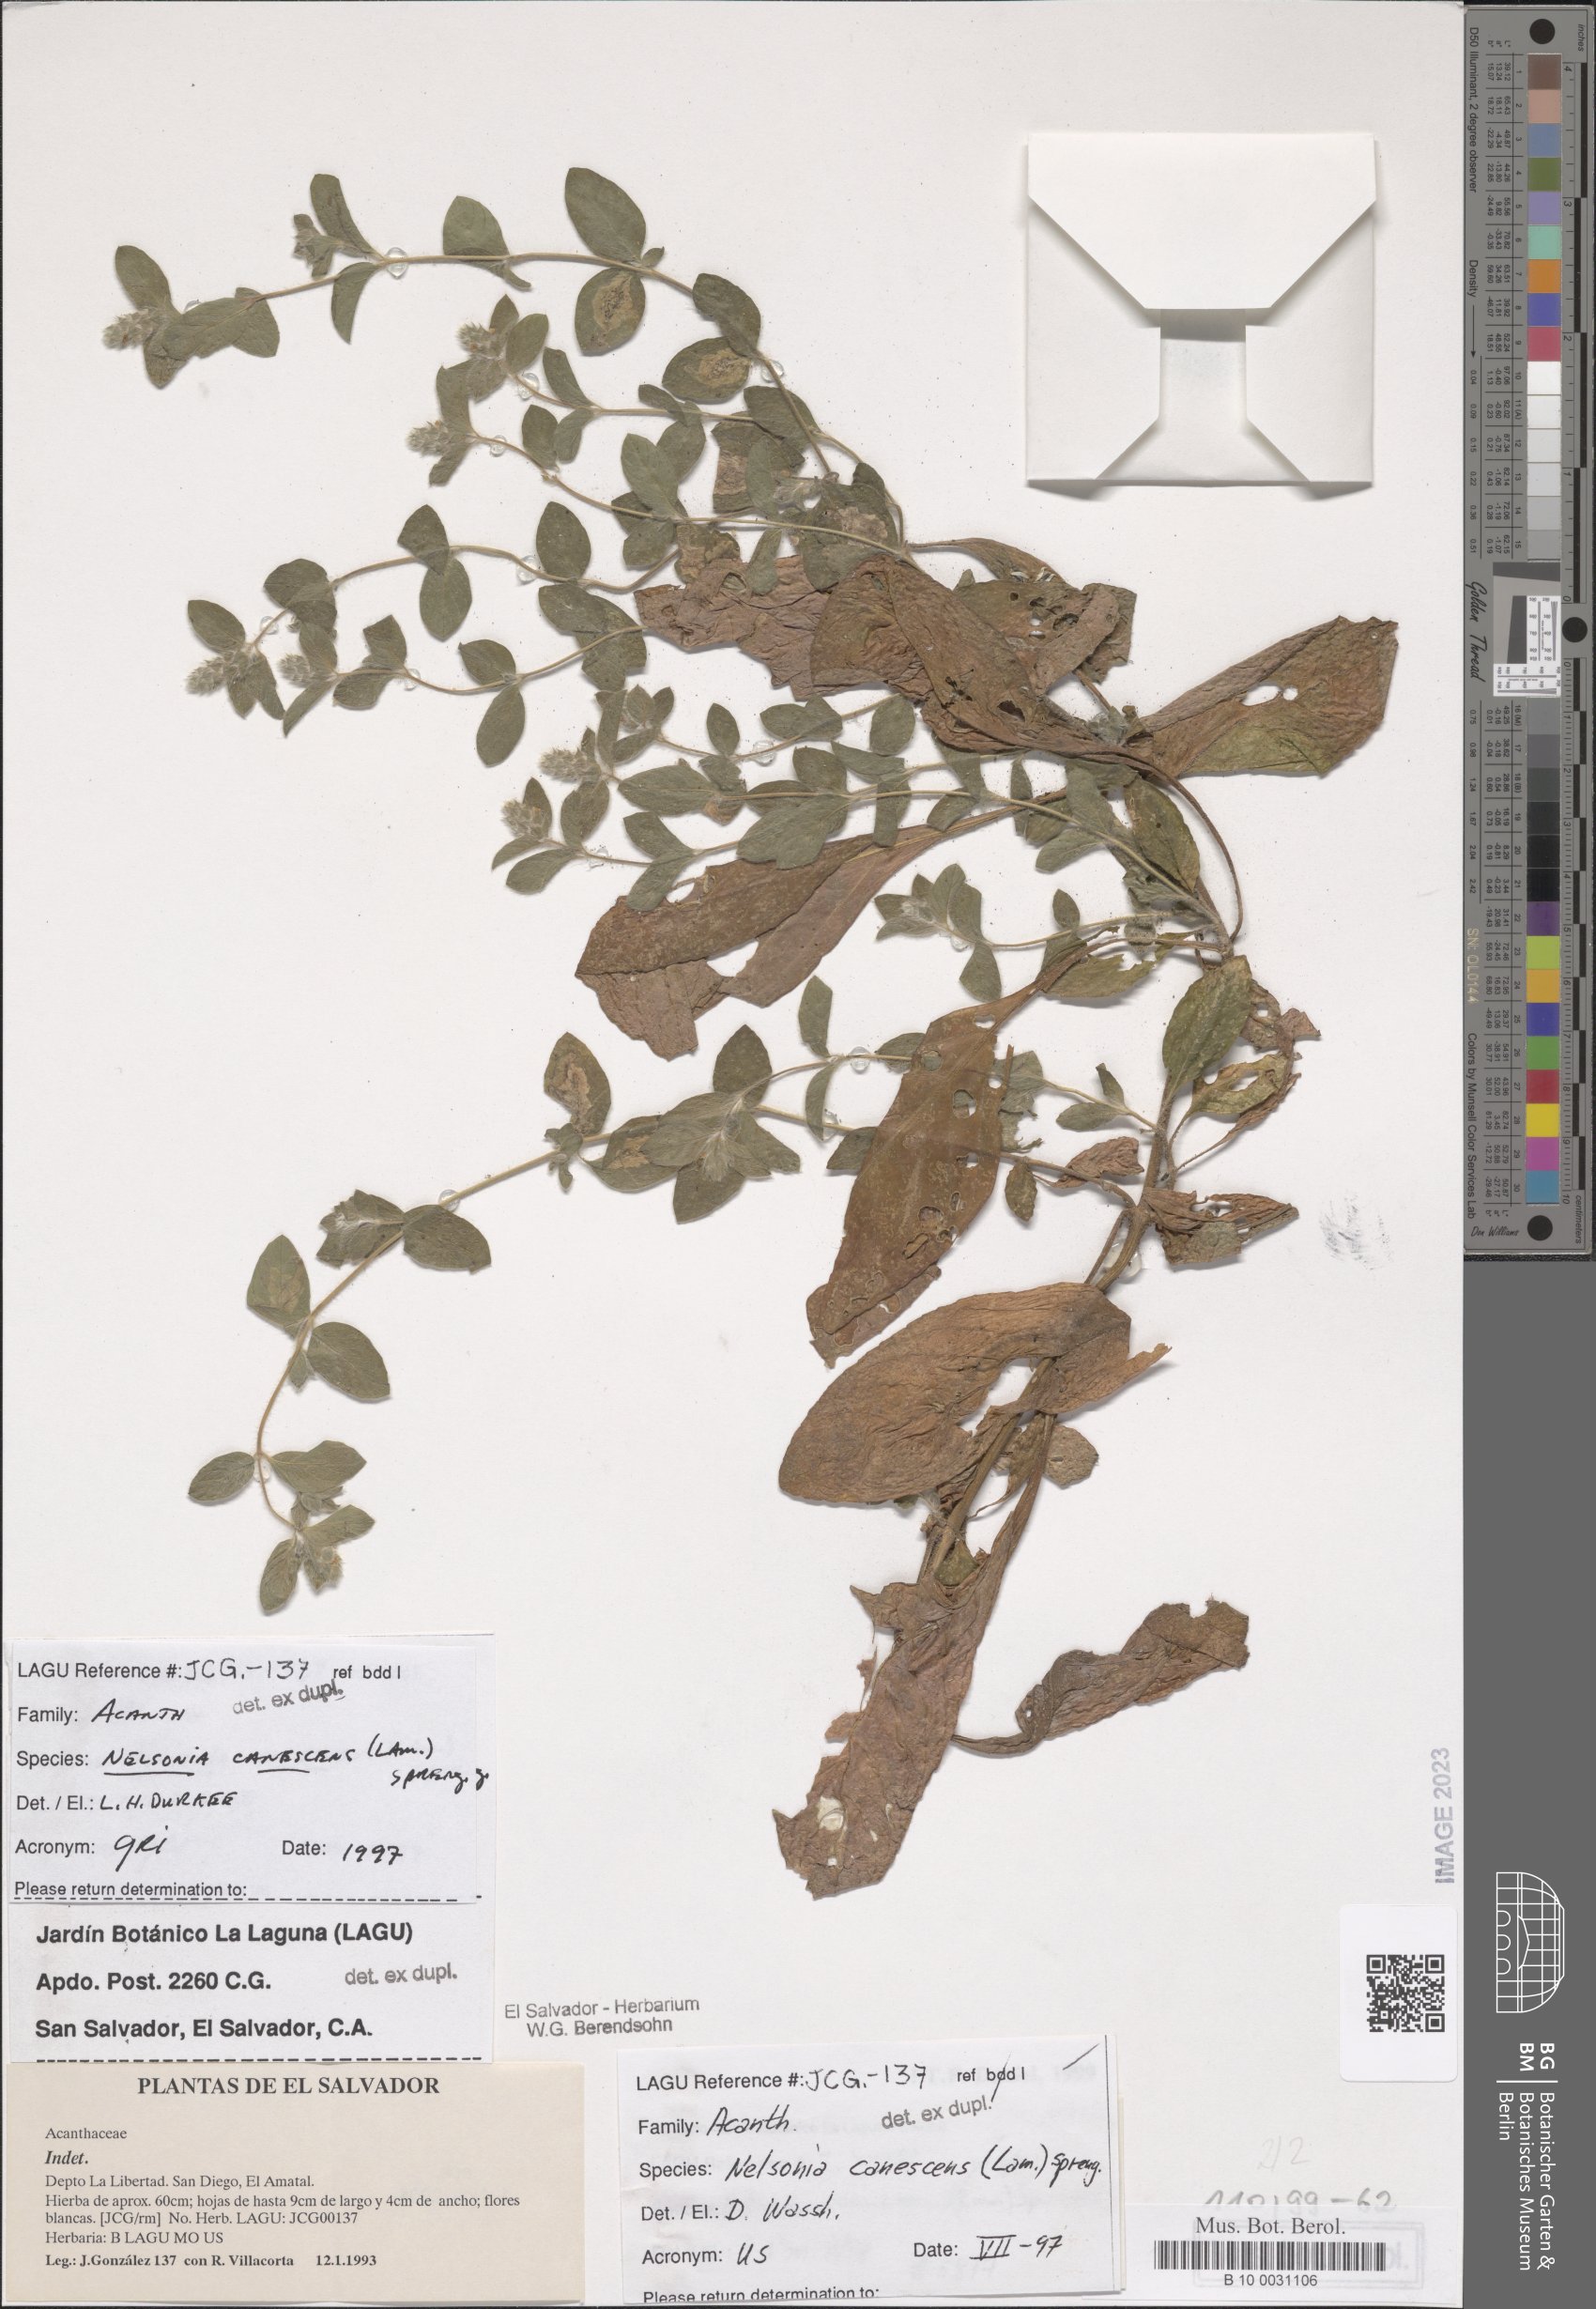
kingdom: Plantae
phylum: Tracheophyta
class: Magnoliopsida
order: Lamiales
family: Acanthaceae
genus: Nelsonia
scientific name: Nelsonia canescens
